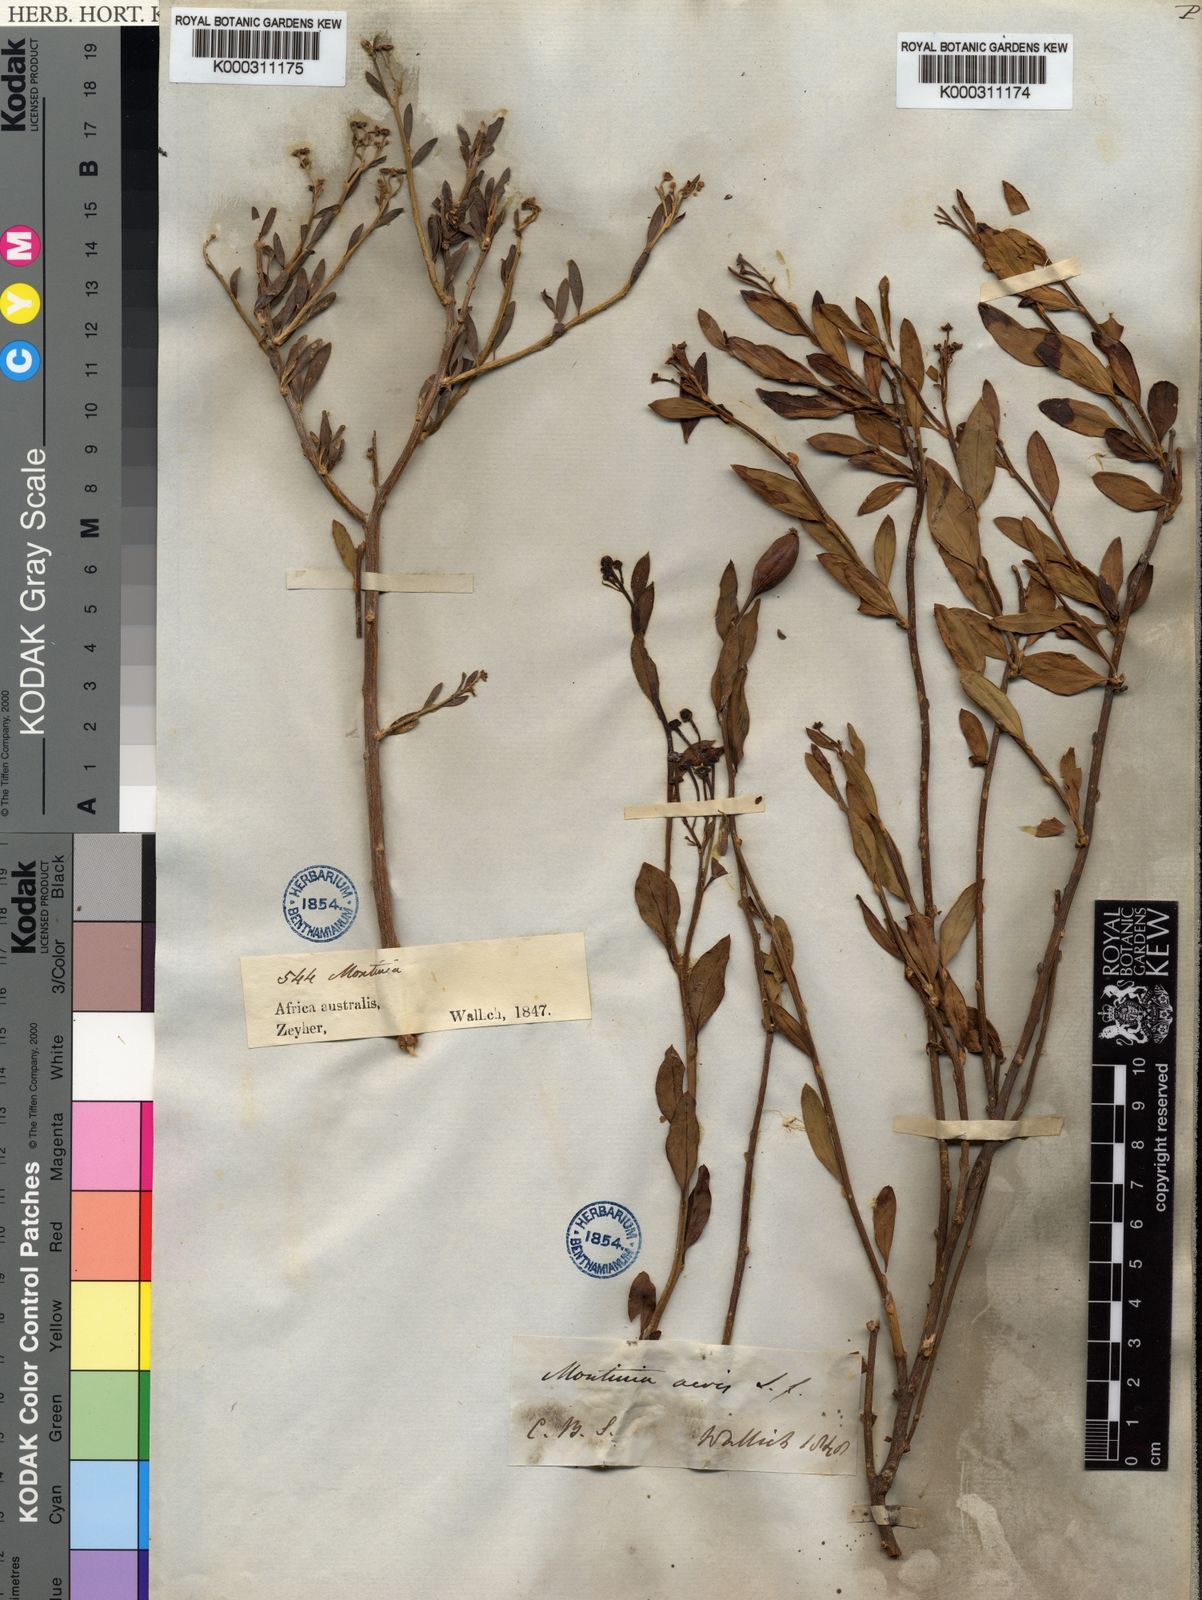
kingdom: Plantae
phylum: Tracheophyta
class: Magnoliopsida
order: Solanales
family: Montiniaceae
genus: Montinia
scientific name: Montinia caryophyllacea
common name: Wild clove-bush
